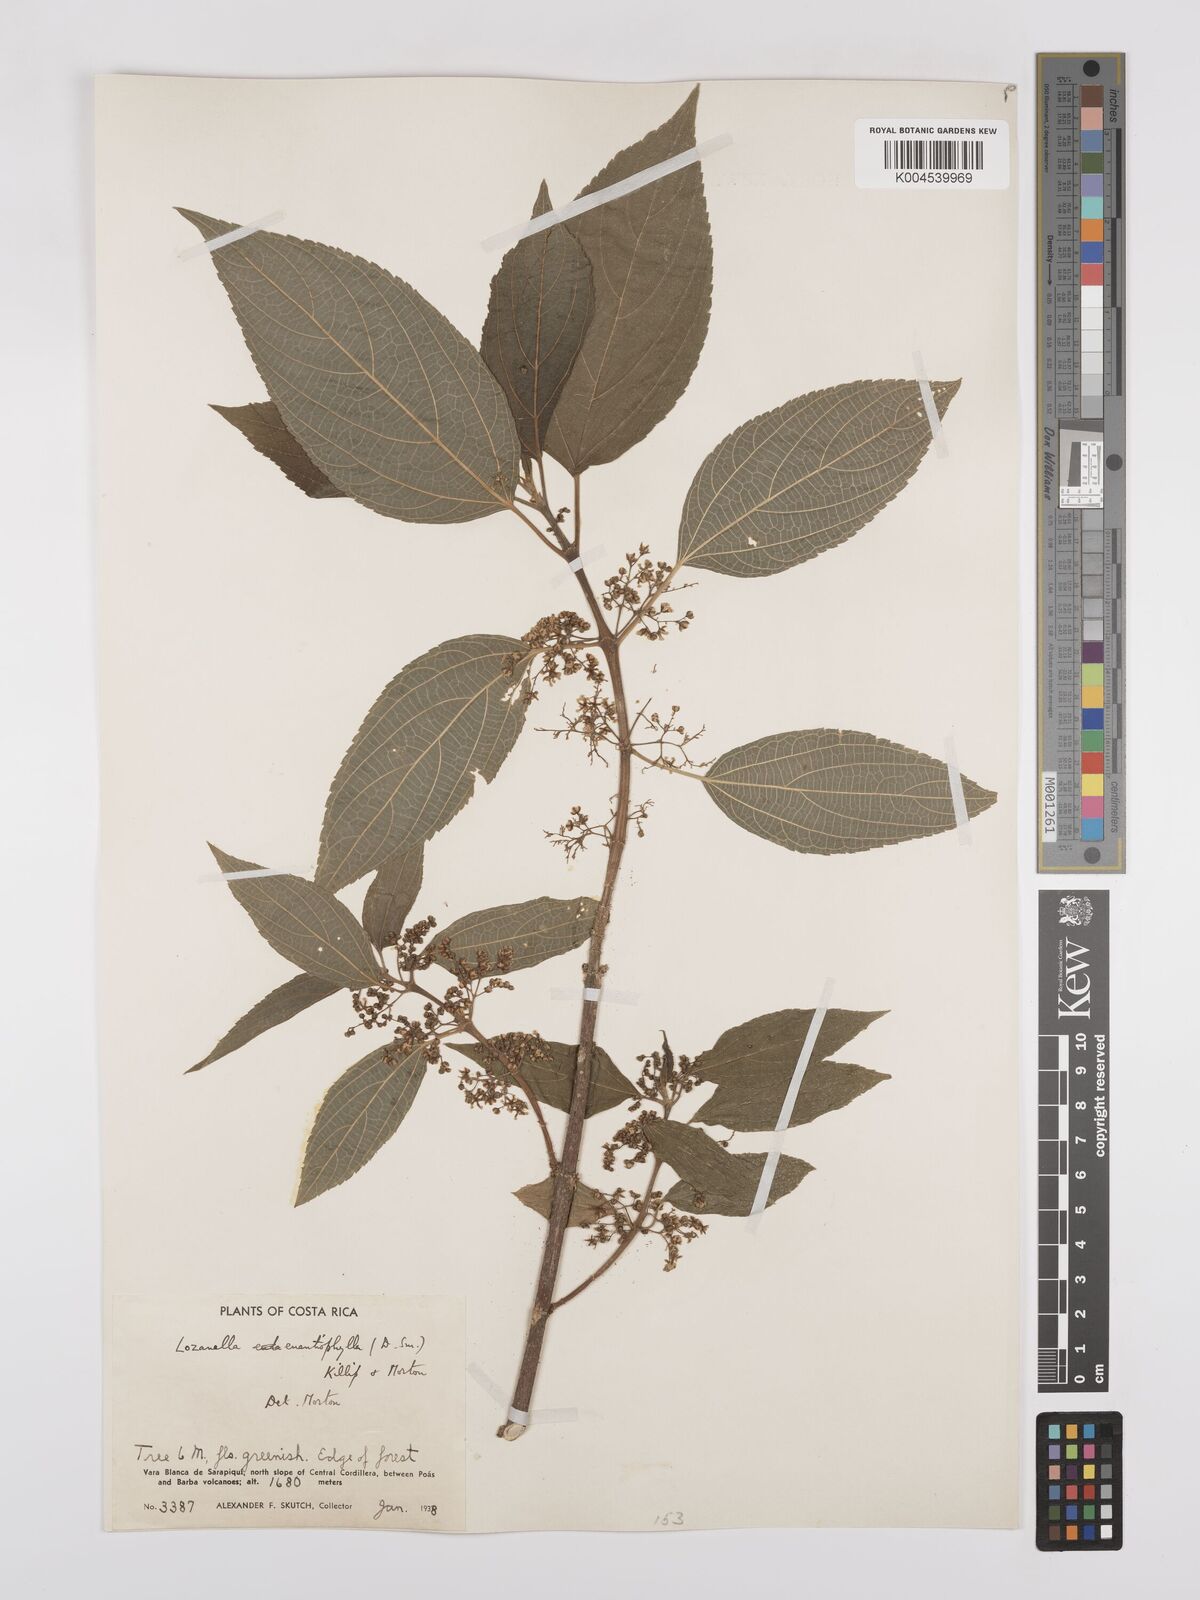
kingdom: Plantae
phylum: Tracheophyta
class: Magnoliopsida
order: Rosales
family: Cannabaceae
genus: Lozanella
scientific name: Lozanella enantiophylla
